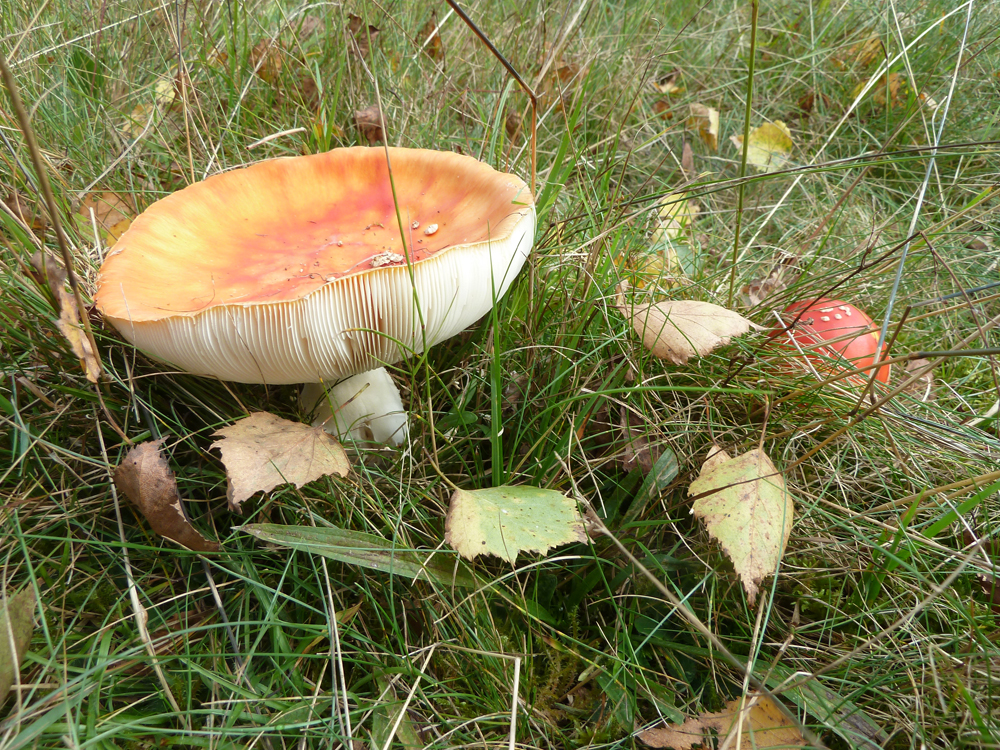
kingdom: Fungi
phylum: Basidiomycota
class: Agaricomycetes
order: Agaricales
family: Amanitaceae
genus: Amanita
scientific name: Amanita muscaria
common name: Fly agaric
